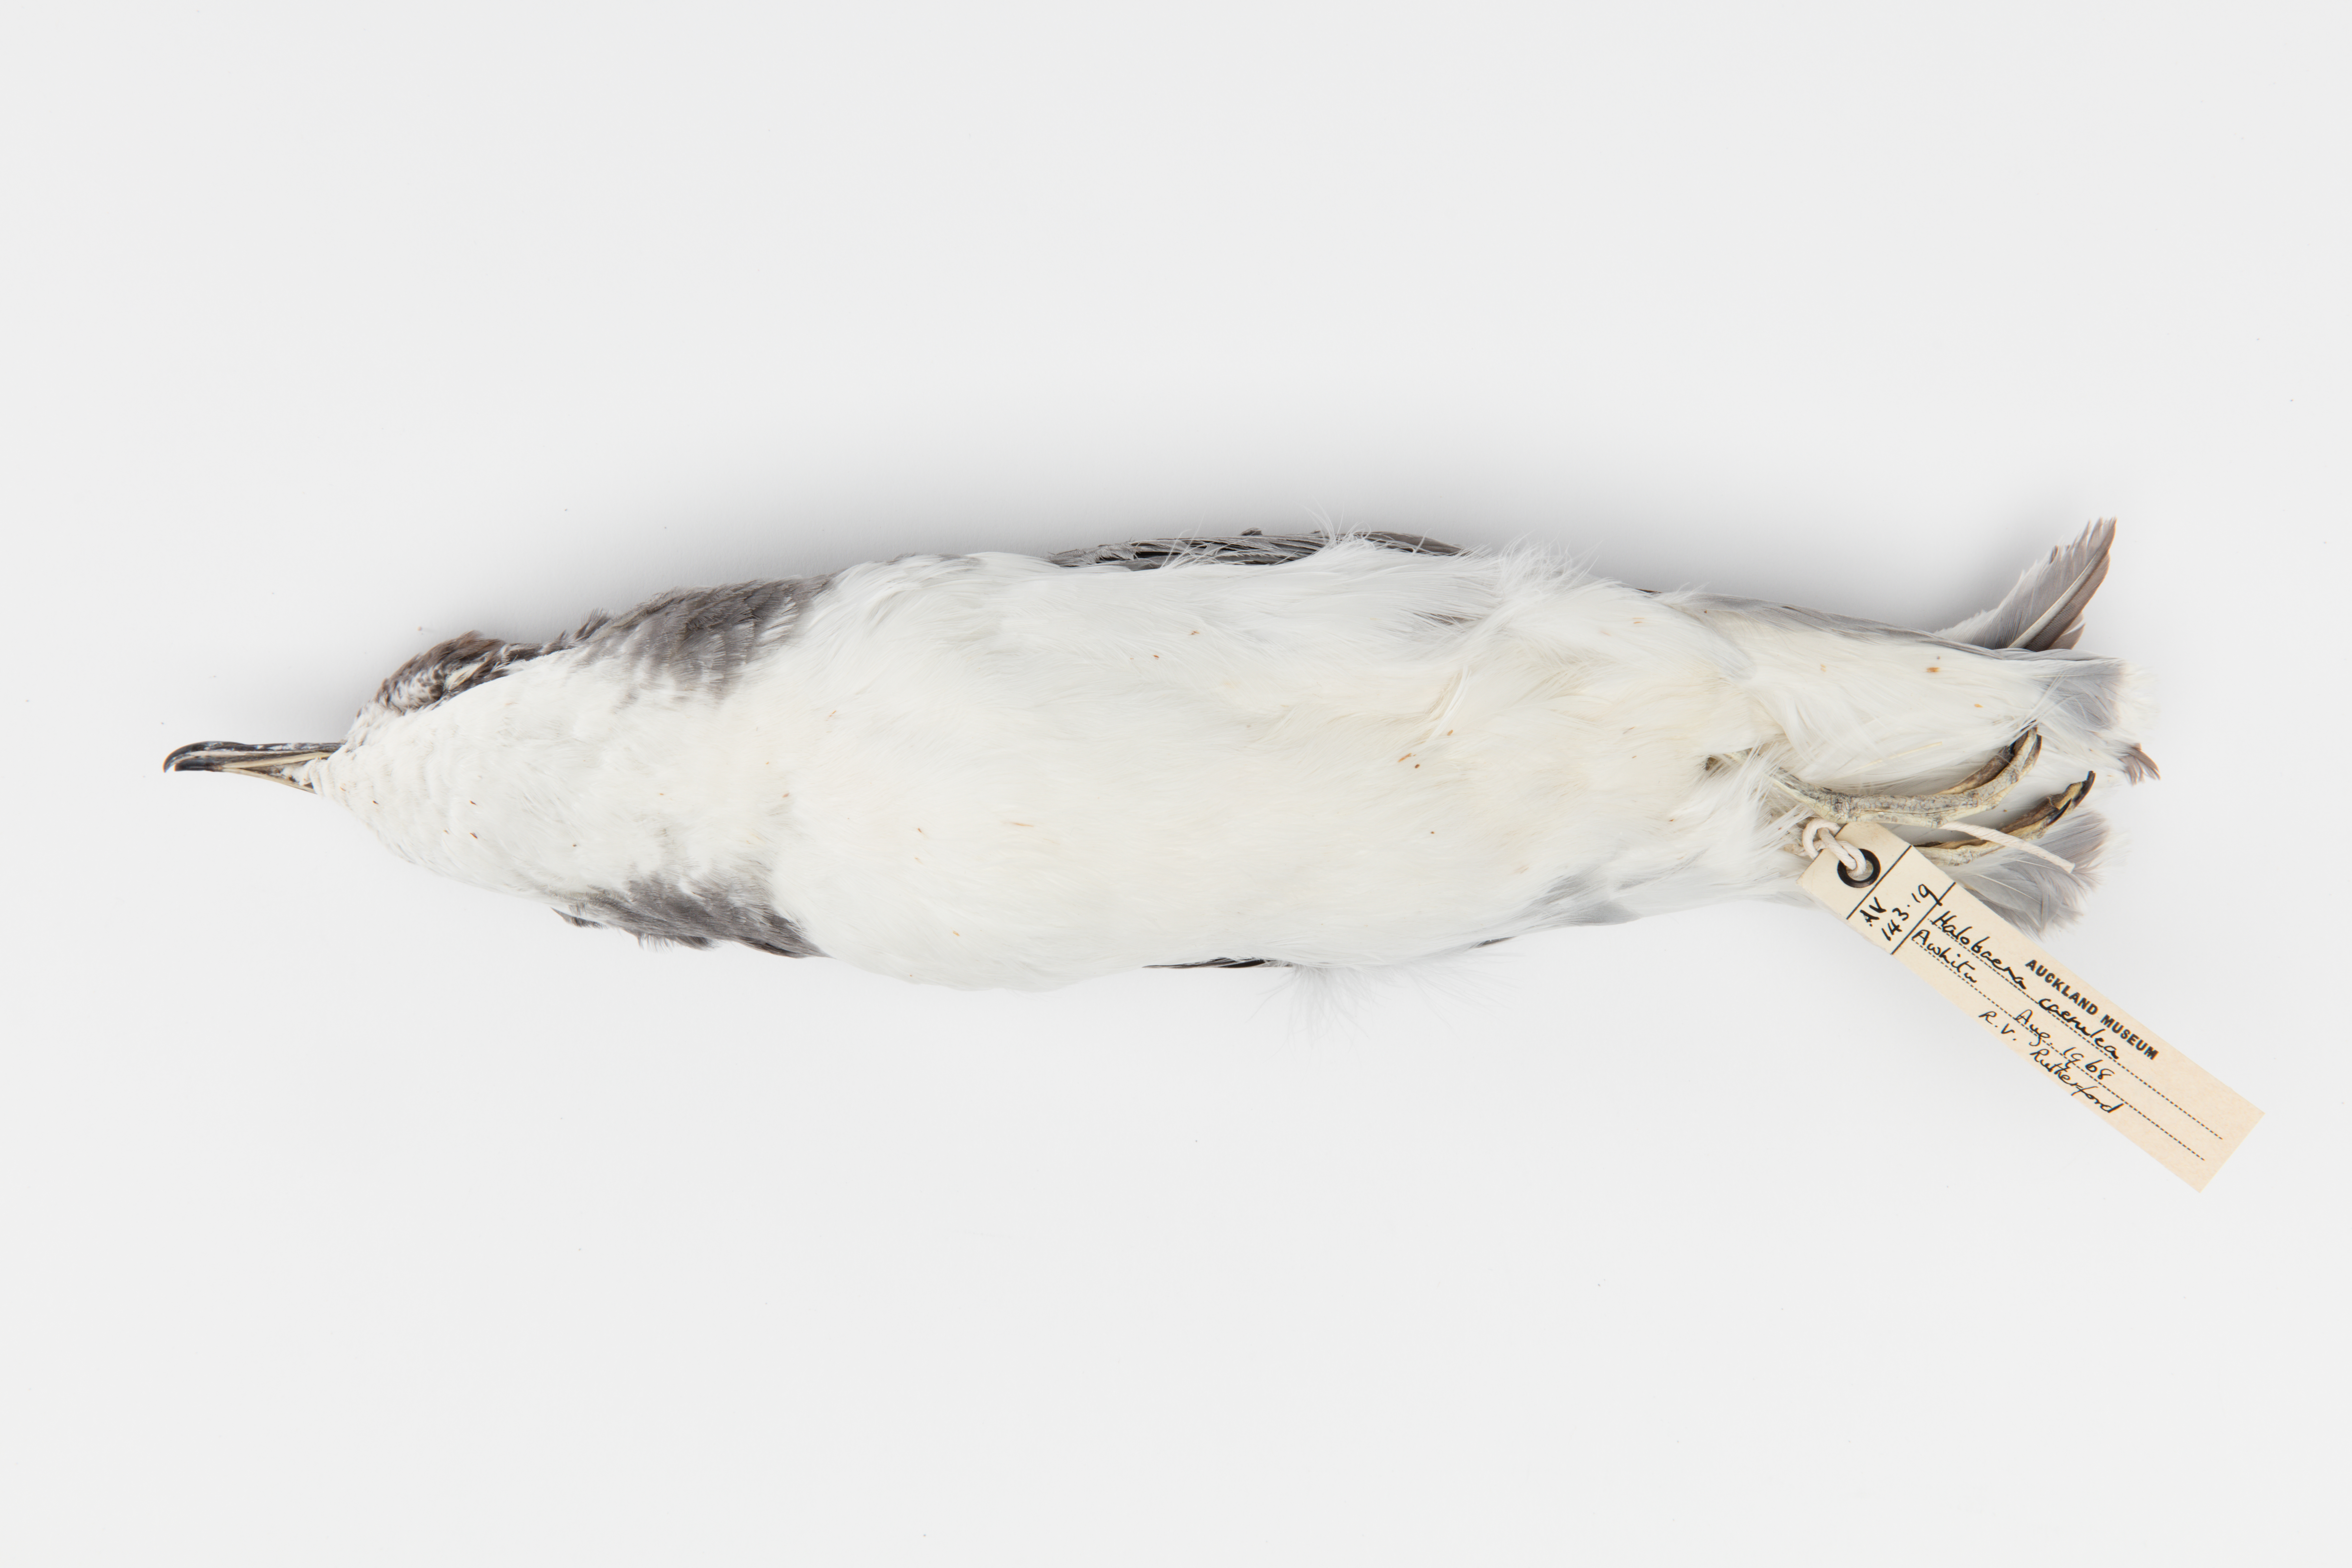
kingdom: Animalia
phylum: Chordata
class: Aves
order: Procellariiformes
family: Procellariidae
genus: Halobaena
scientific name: Halobaena caerulea
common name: Blue petrel
